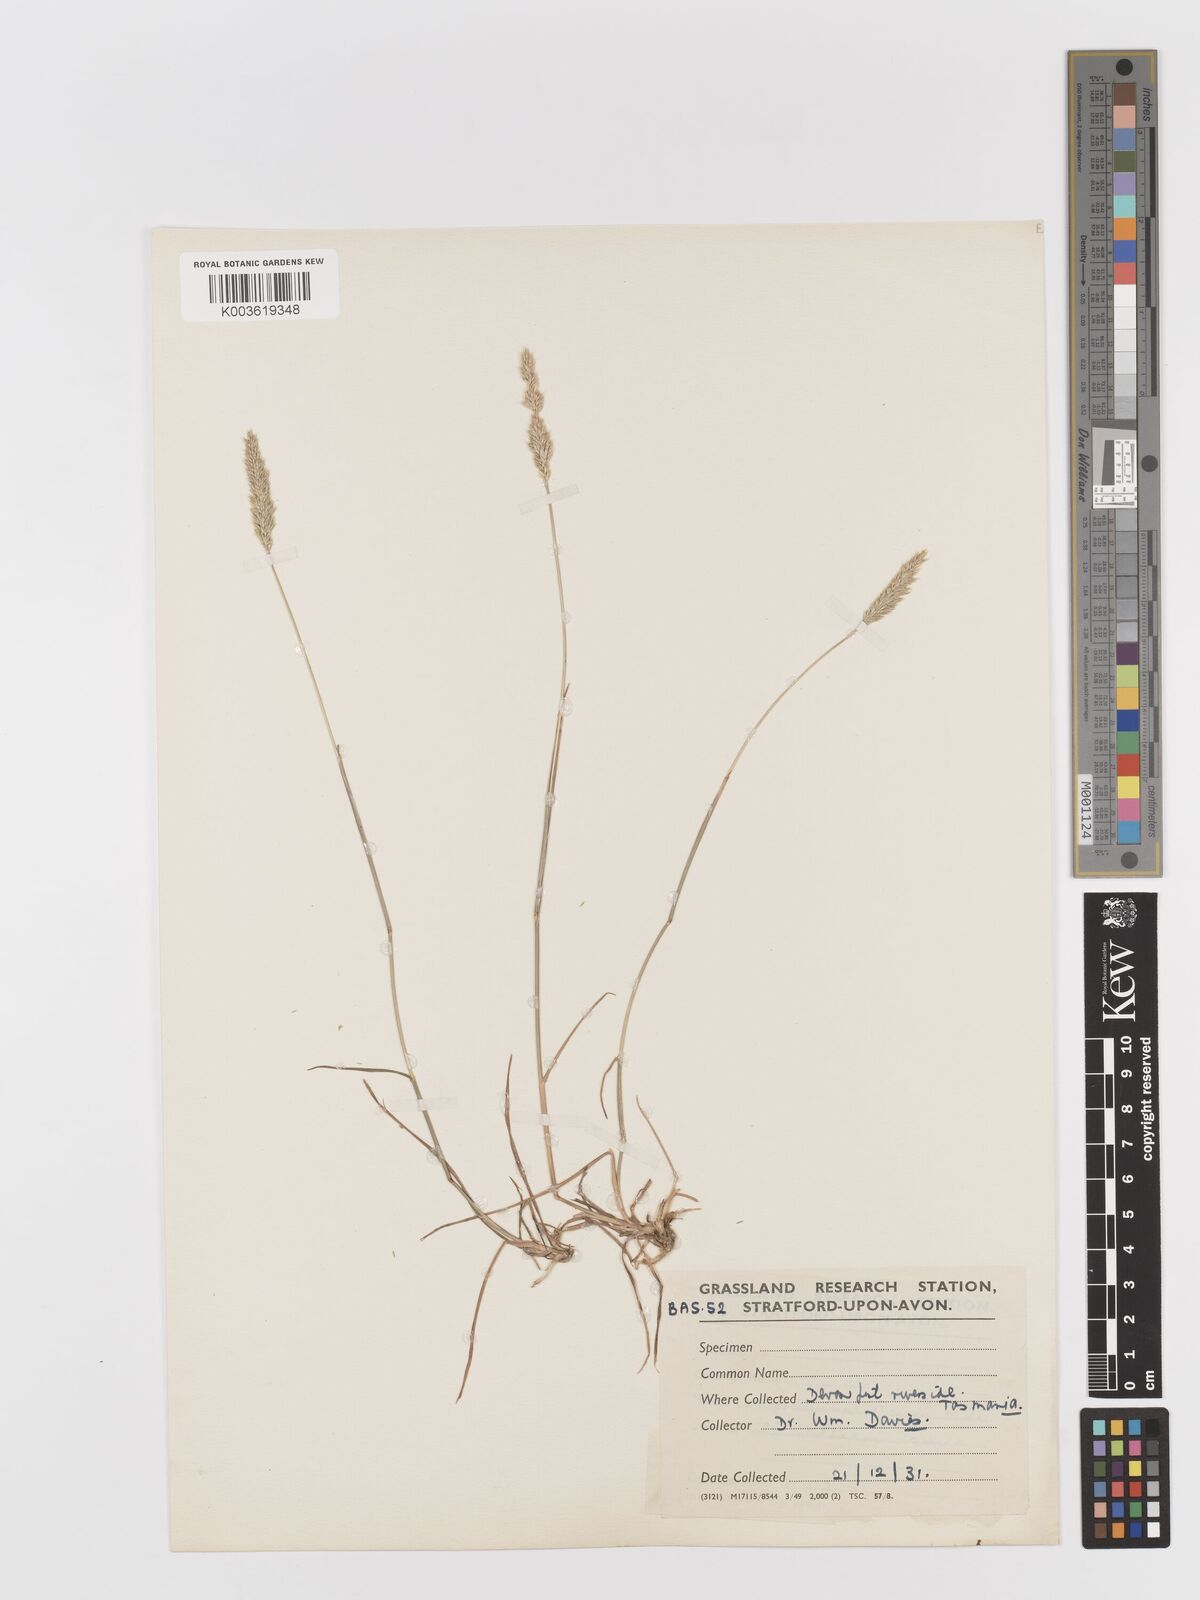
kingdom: Plantae
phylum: Tracheophyta
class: Liliopsida
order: Poales
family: Poaceae
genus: Rostraria
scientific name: Rostraria cristata
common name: Mediterranean hair-grass
